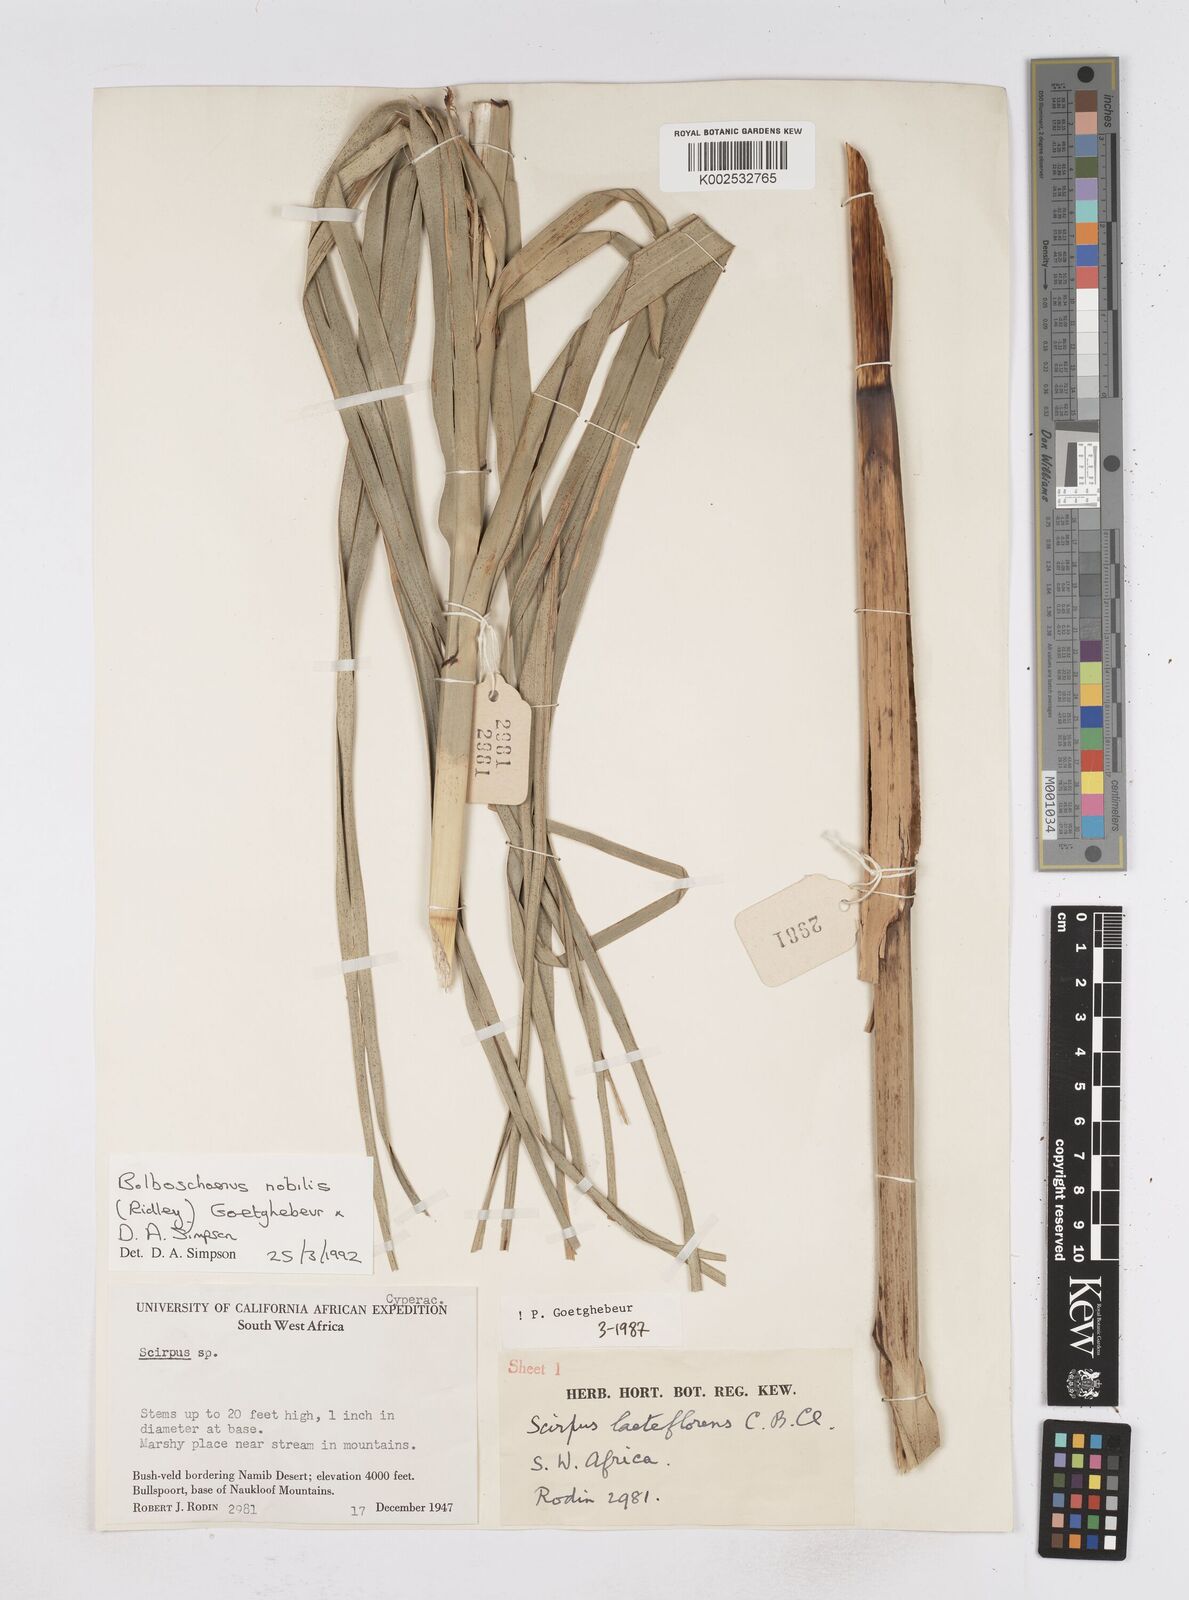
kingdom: Plantae
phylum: Tracheophyta
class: Liliopsida
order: Poales
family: Cyperaceae
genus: Bolboschoenus
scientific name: Bolboschoenus nobilis
